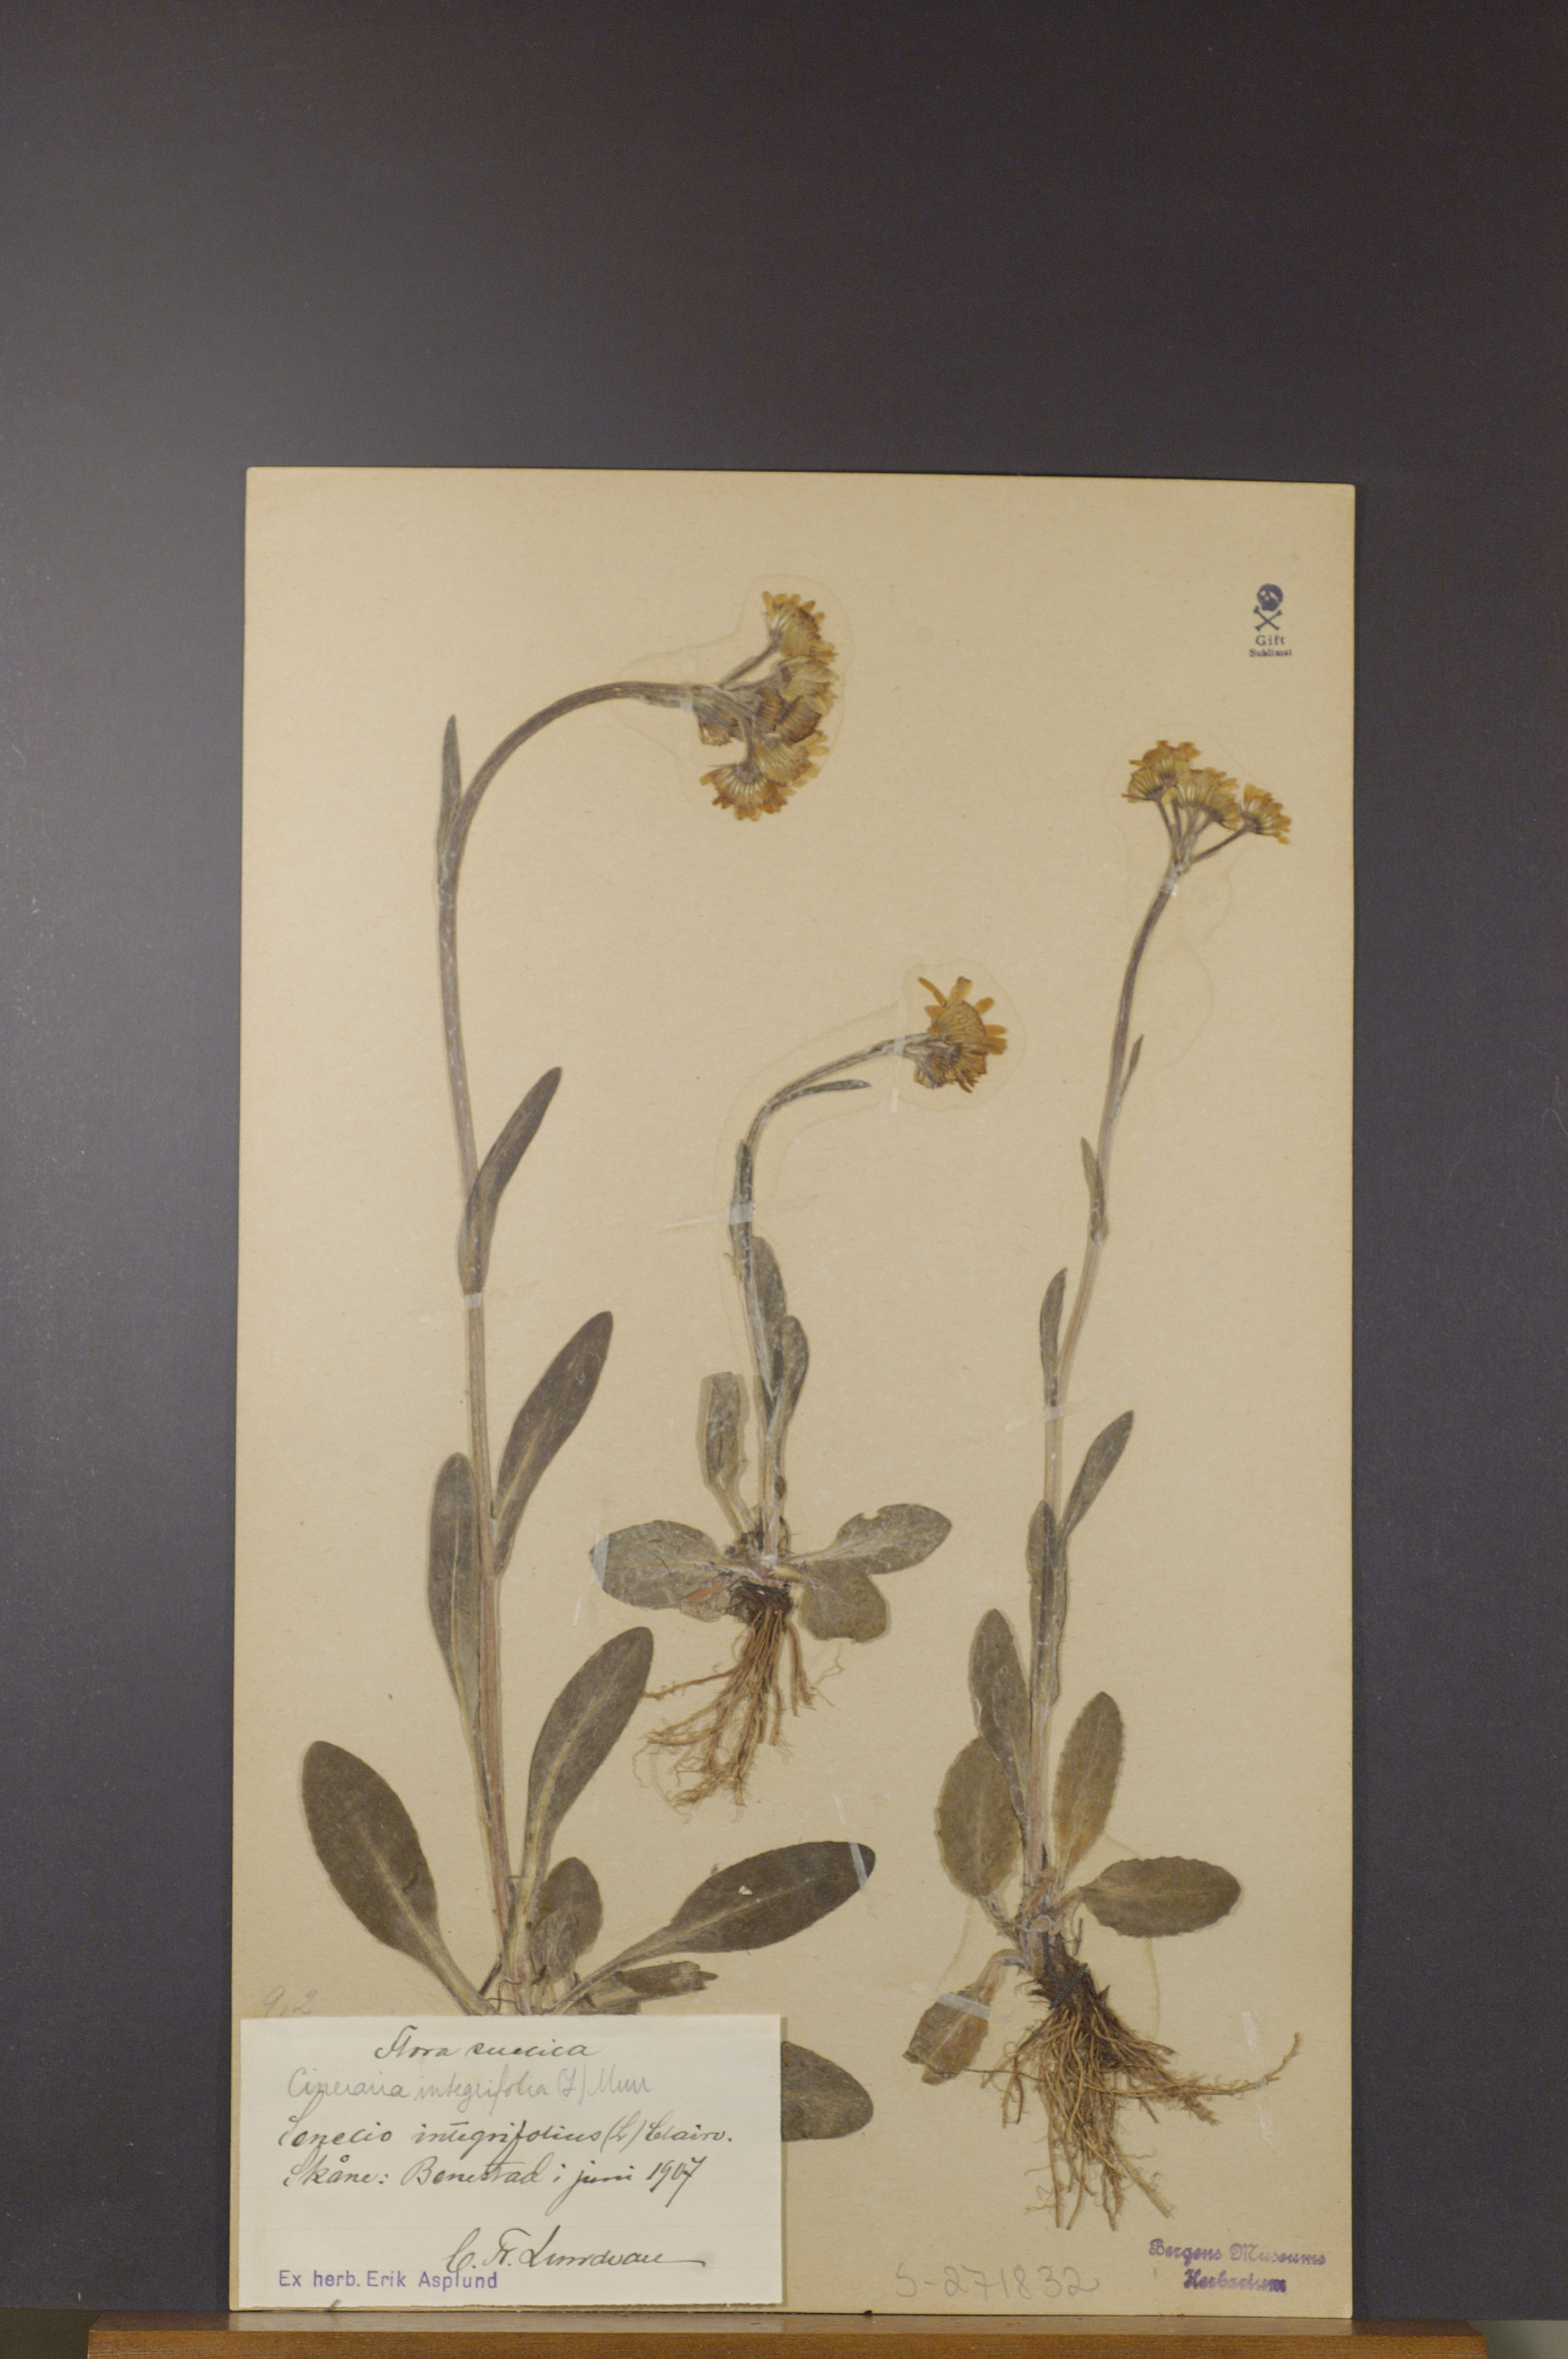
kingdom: Plantae
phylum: Tracheophyta
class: Magnoliopsida
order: Asterales
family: Asteraceae
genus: Tephroseris
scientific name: Tephroseris integrifolia
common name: Field fleawort
